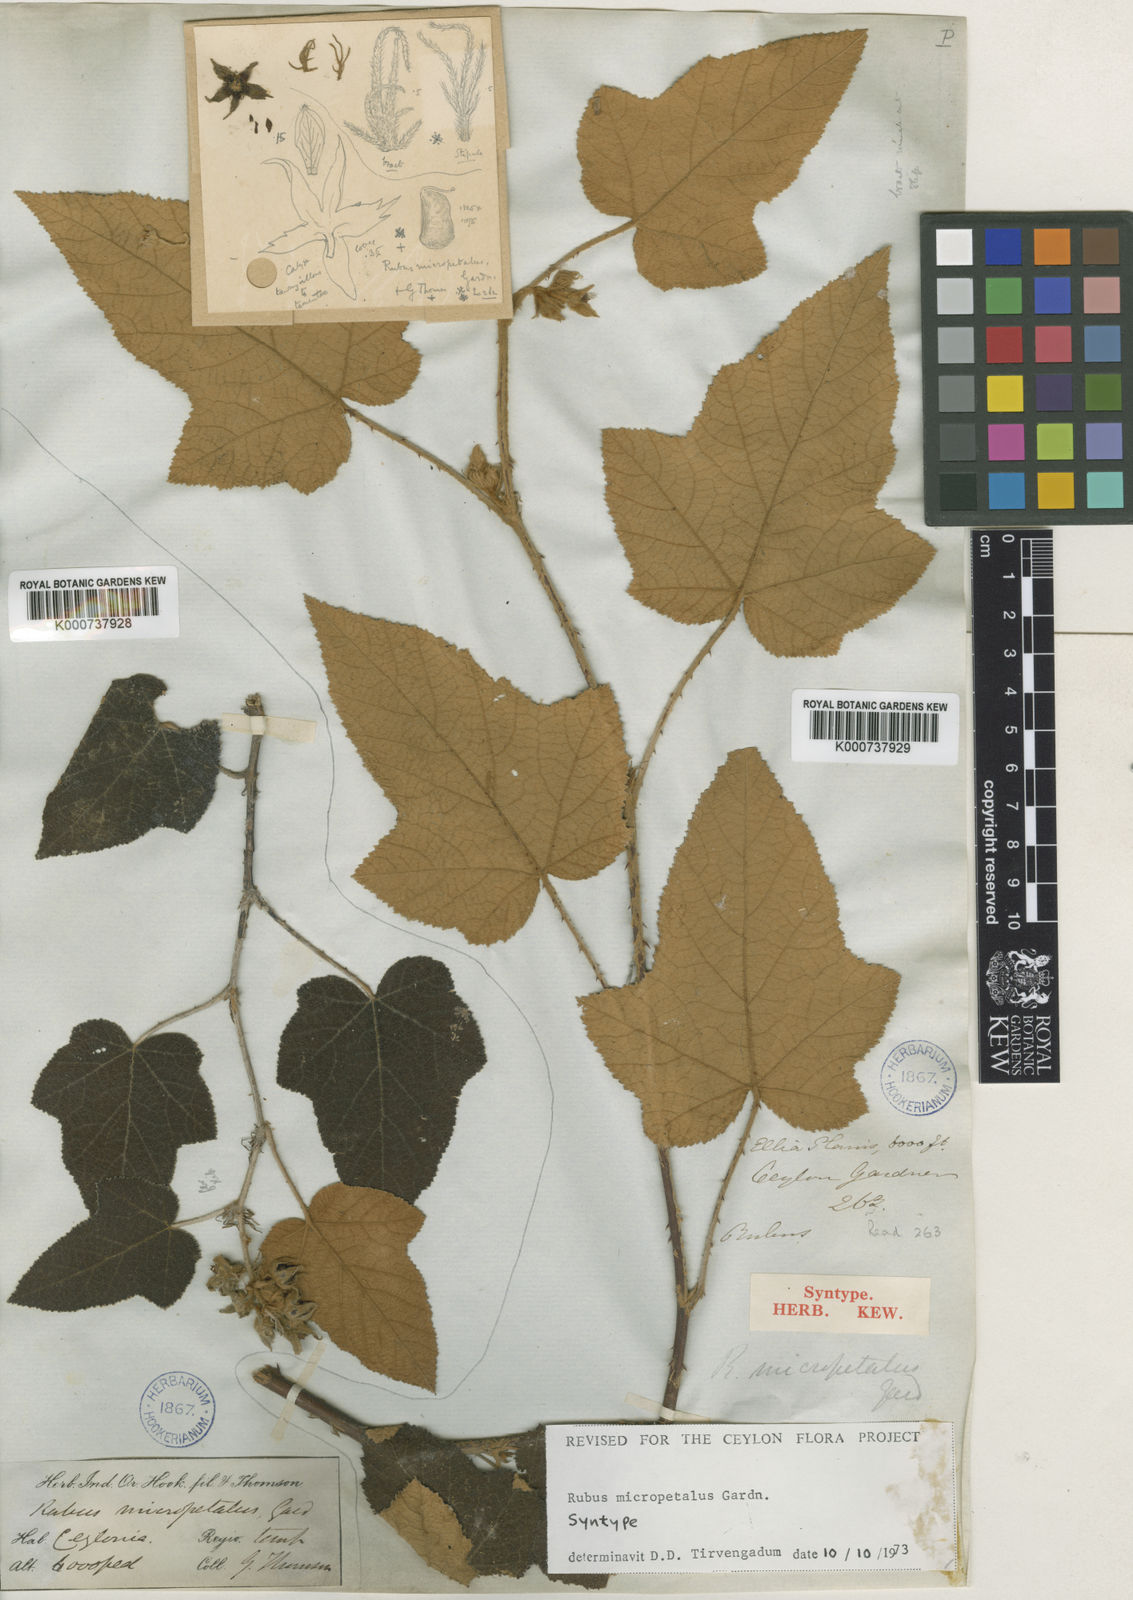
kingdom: Plantae
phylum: Tracheophyta
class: Magnoliopsida
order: Rosales
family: Rosaceae
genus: Rubus
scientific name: Rubus micropetalus
